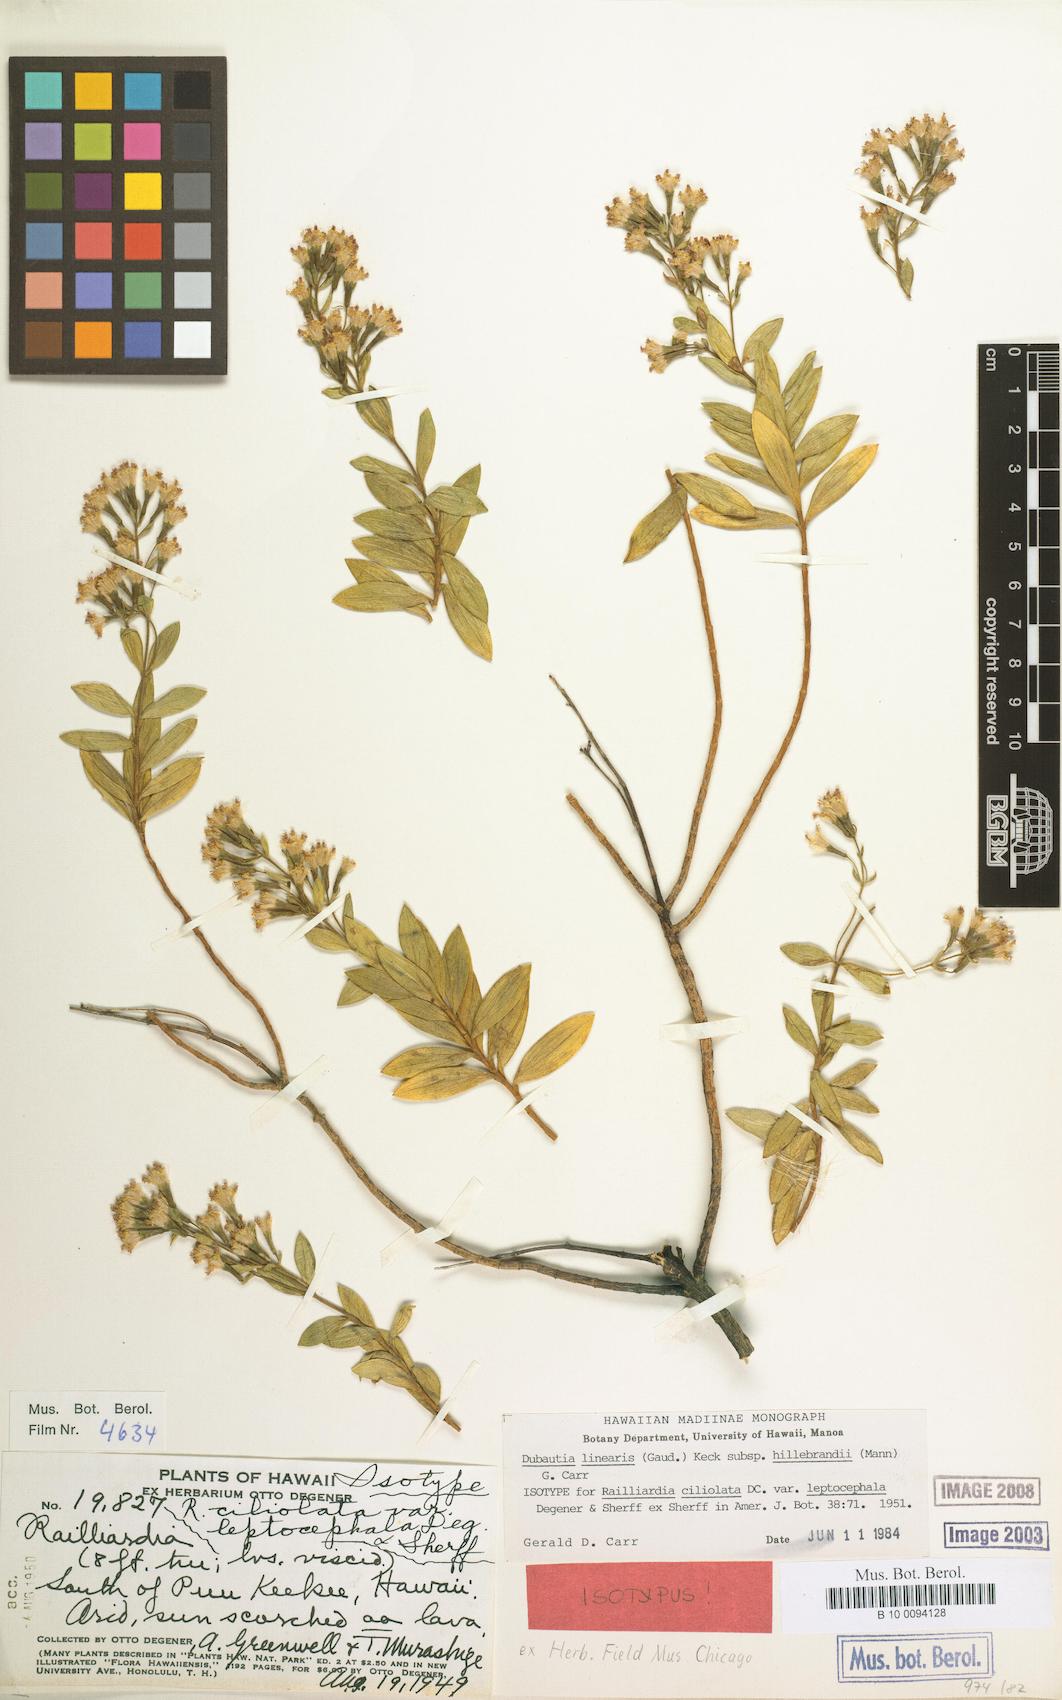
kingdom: Plantae
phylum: Tracheophyta
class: Magnoliopsida
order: Asterales
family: Asteraceae
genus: Dubautia
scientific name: Dubautia linearis
